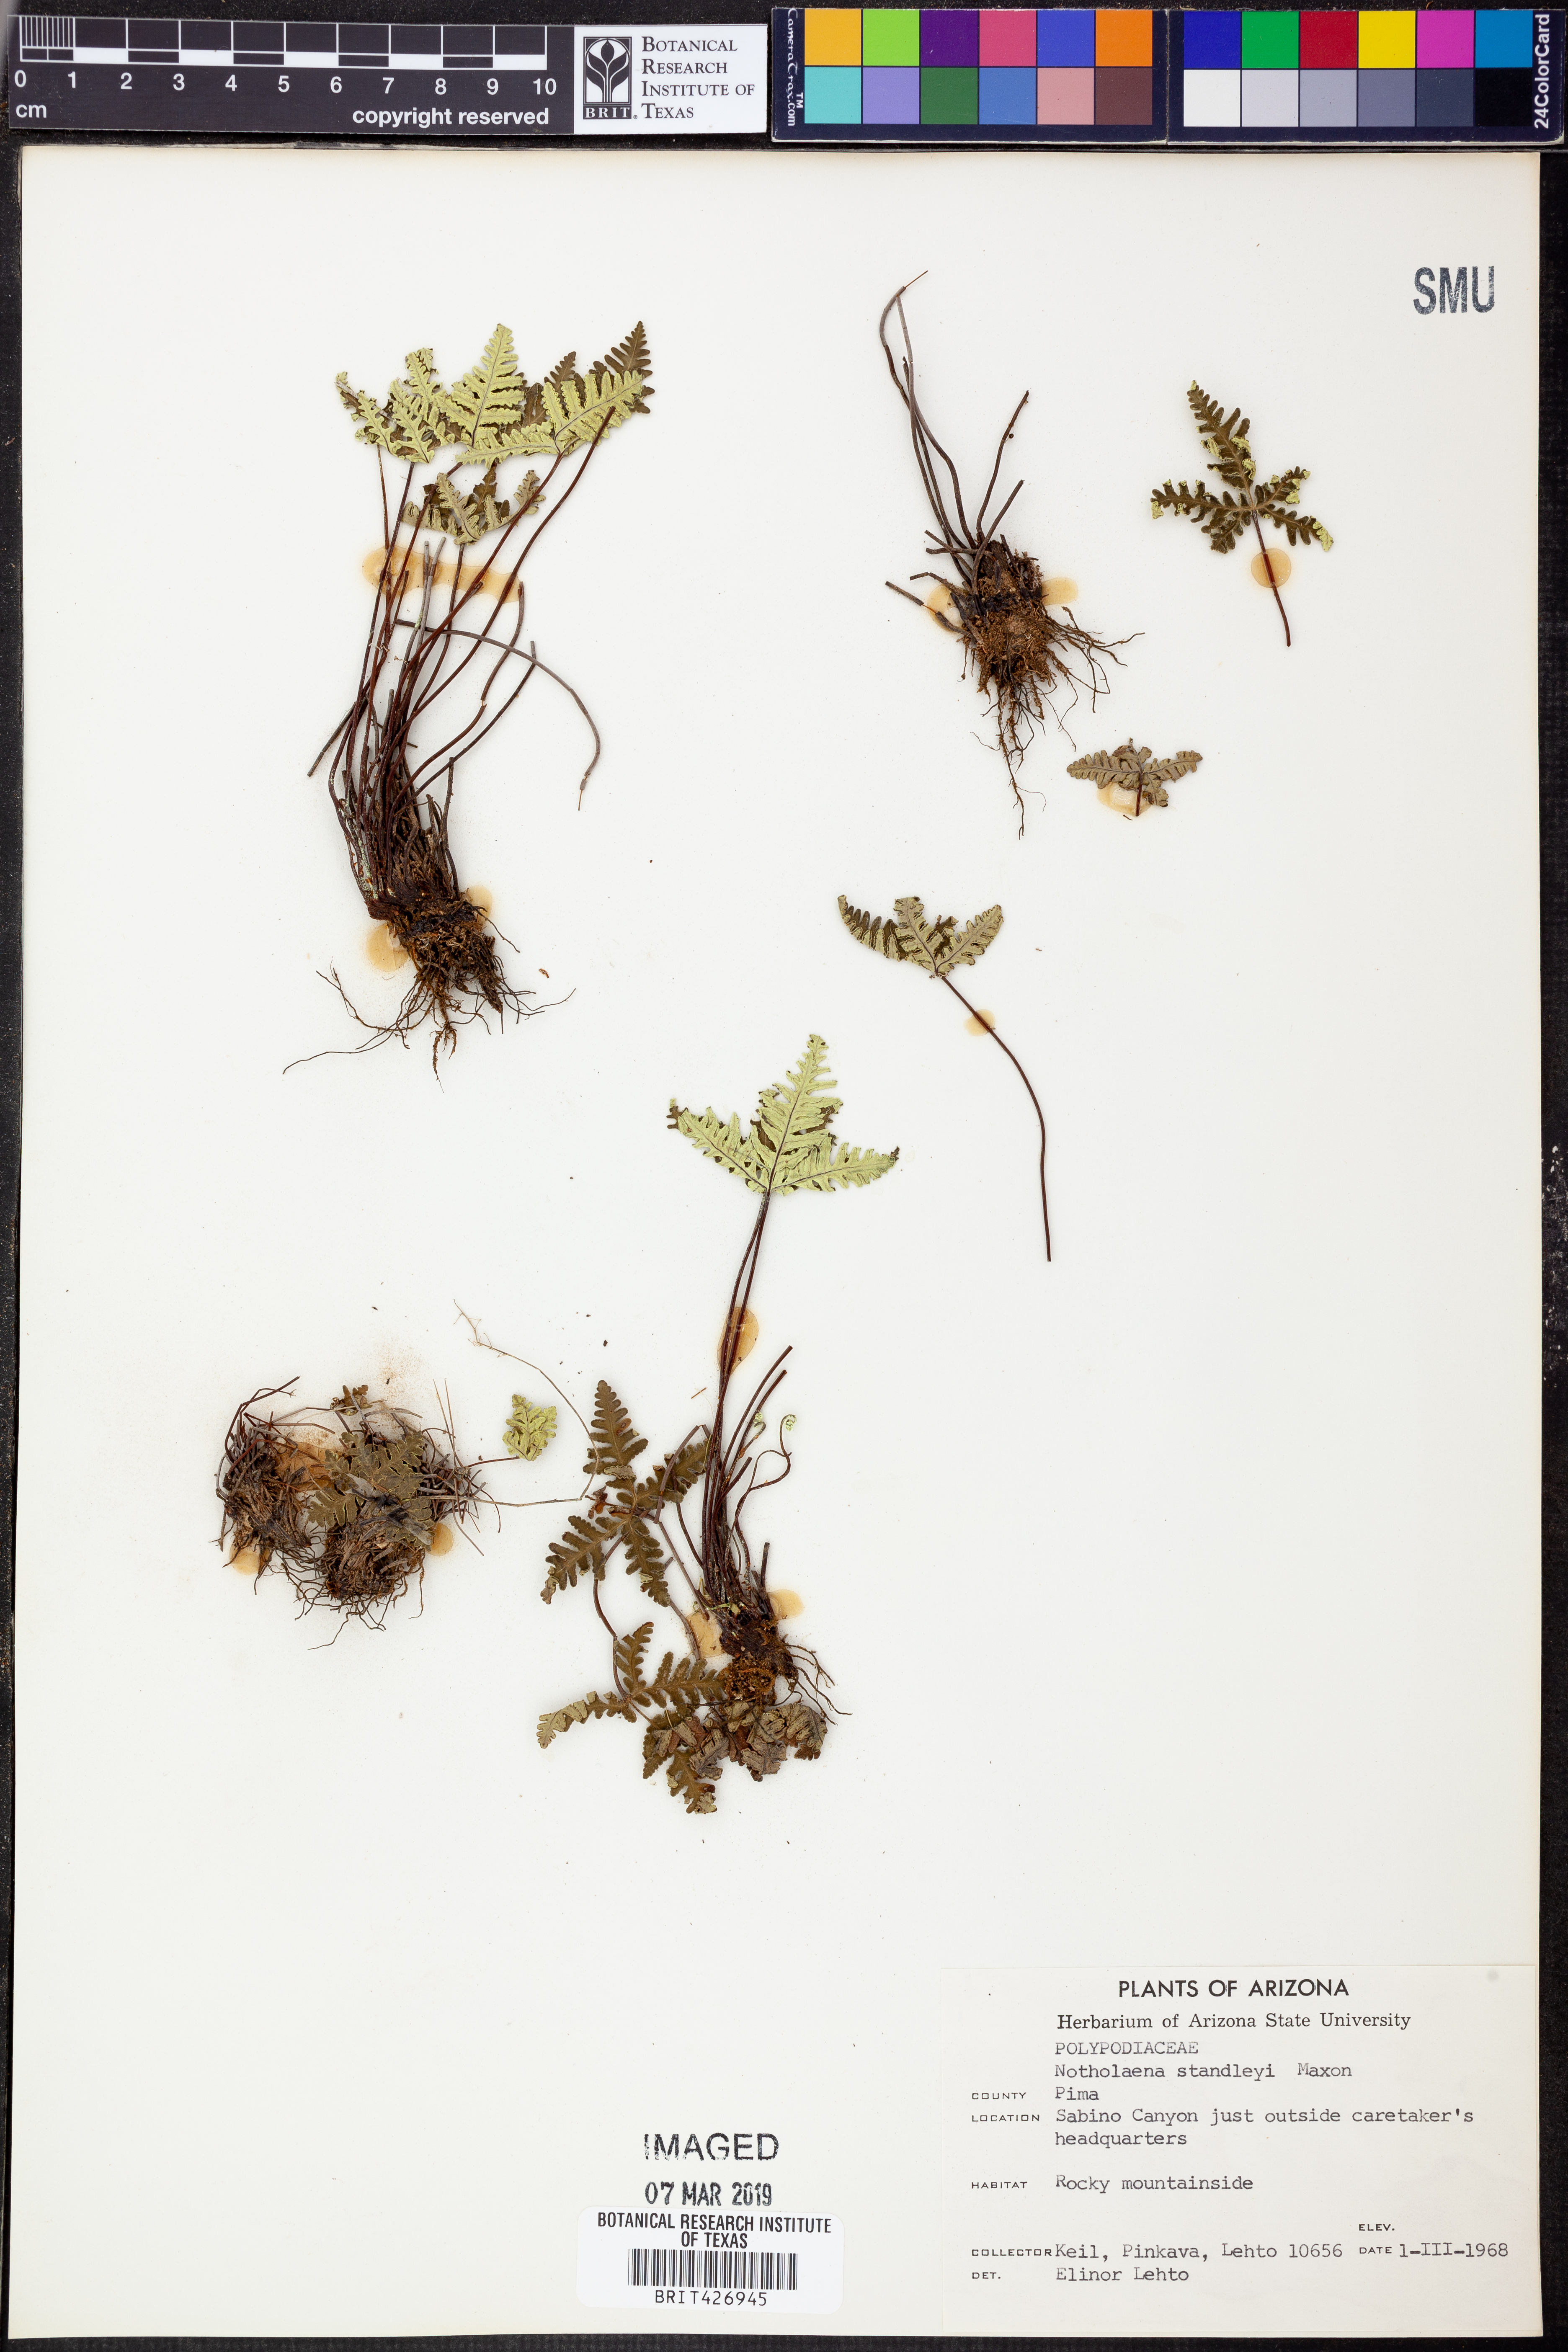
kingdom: Plantae
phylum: Tracheophyta
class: Polypodiopsida
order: Polypodiales
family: Pteridaceae
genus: Notholaena
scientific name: Notholaena standleyi
